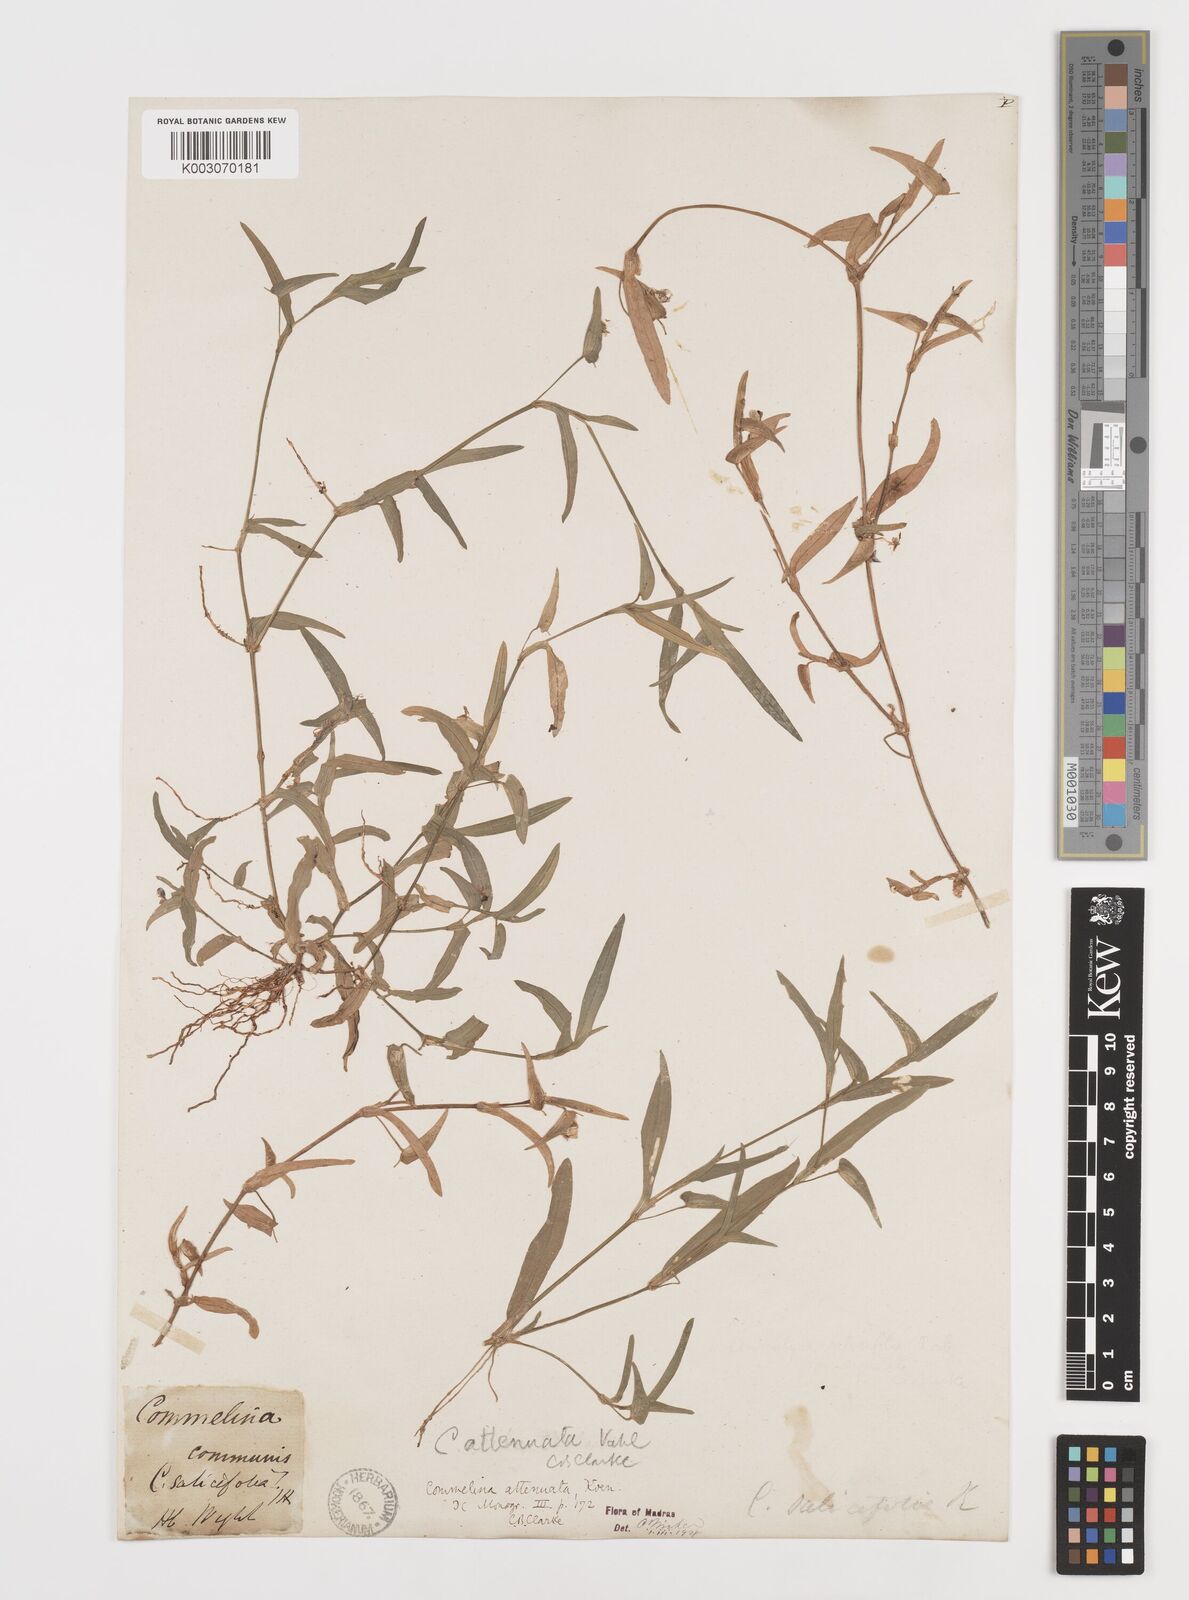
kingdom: Plantae
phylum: Tracheophyta
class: Liliopsida
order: Commelinales
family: Commelinaceae
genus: Commelina
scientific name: Commelina attenuata
